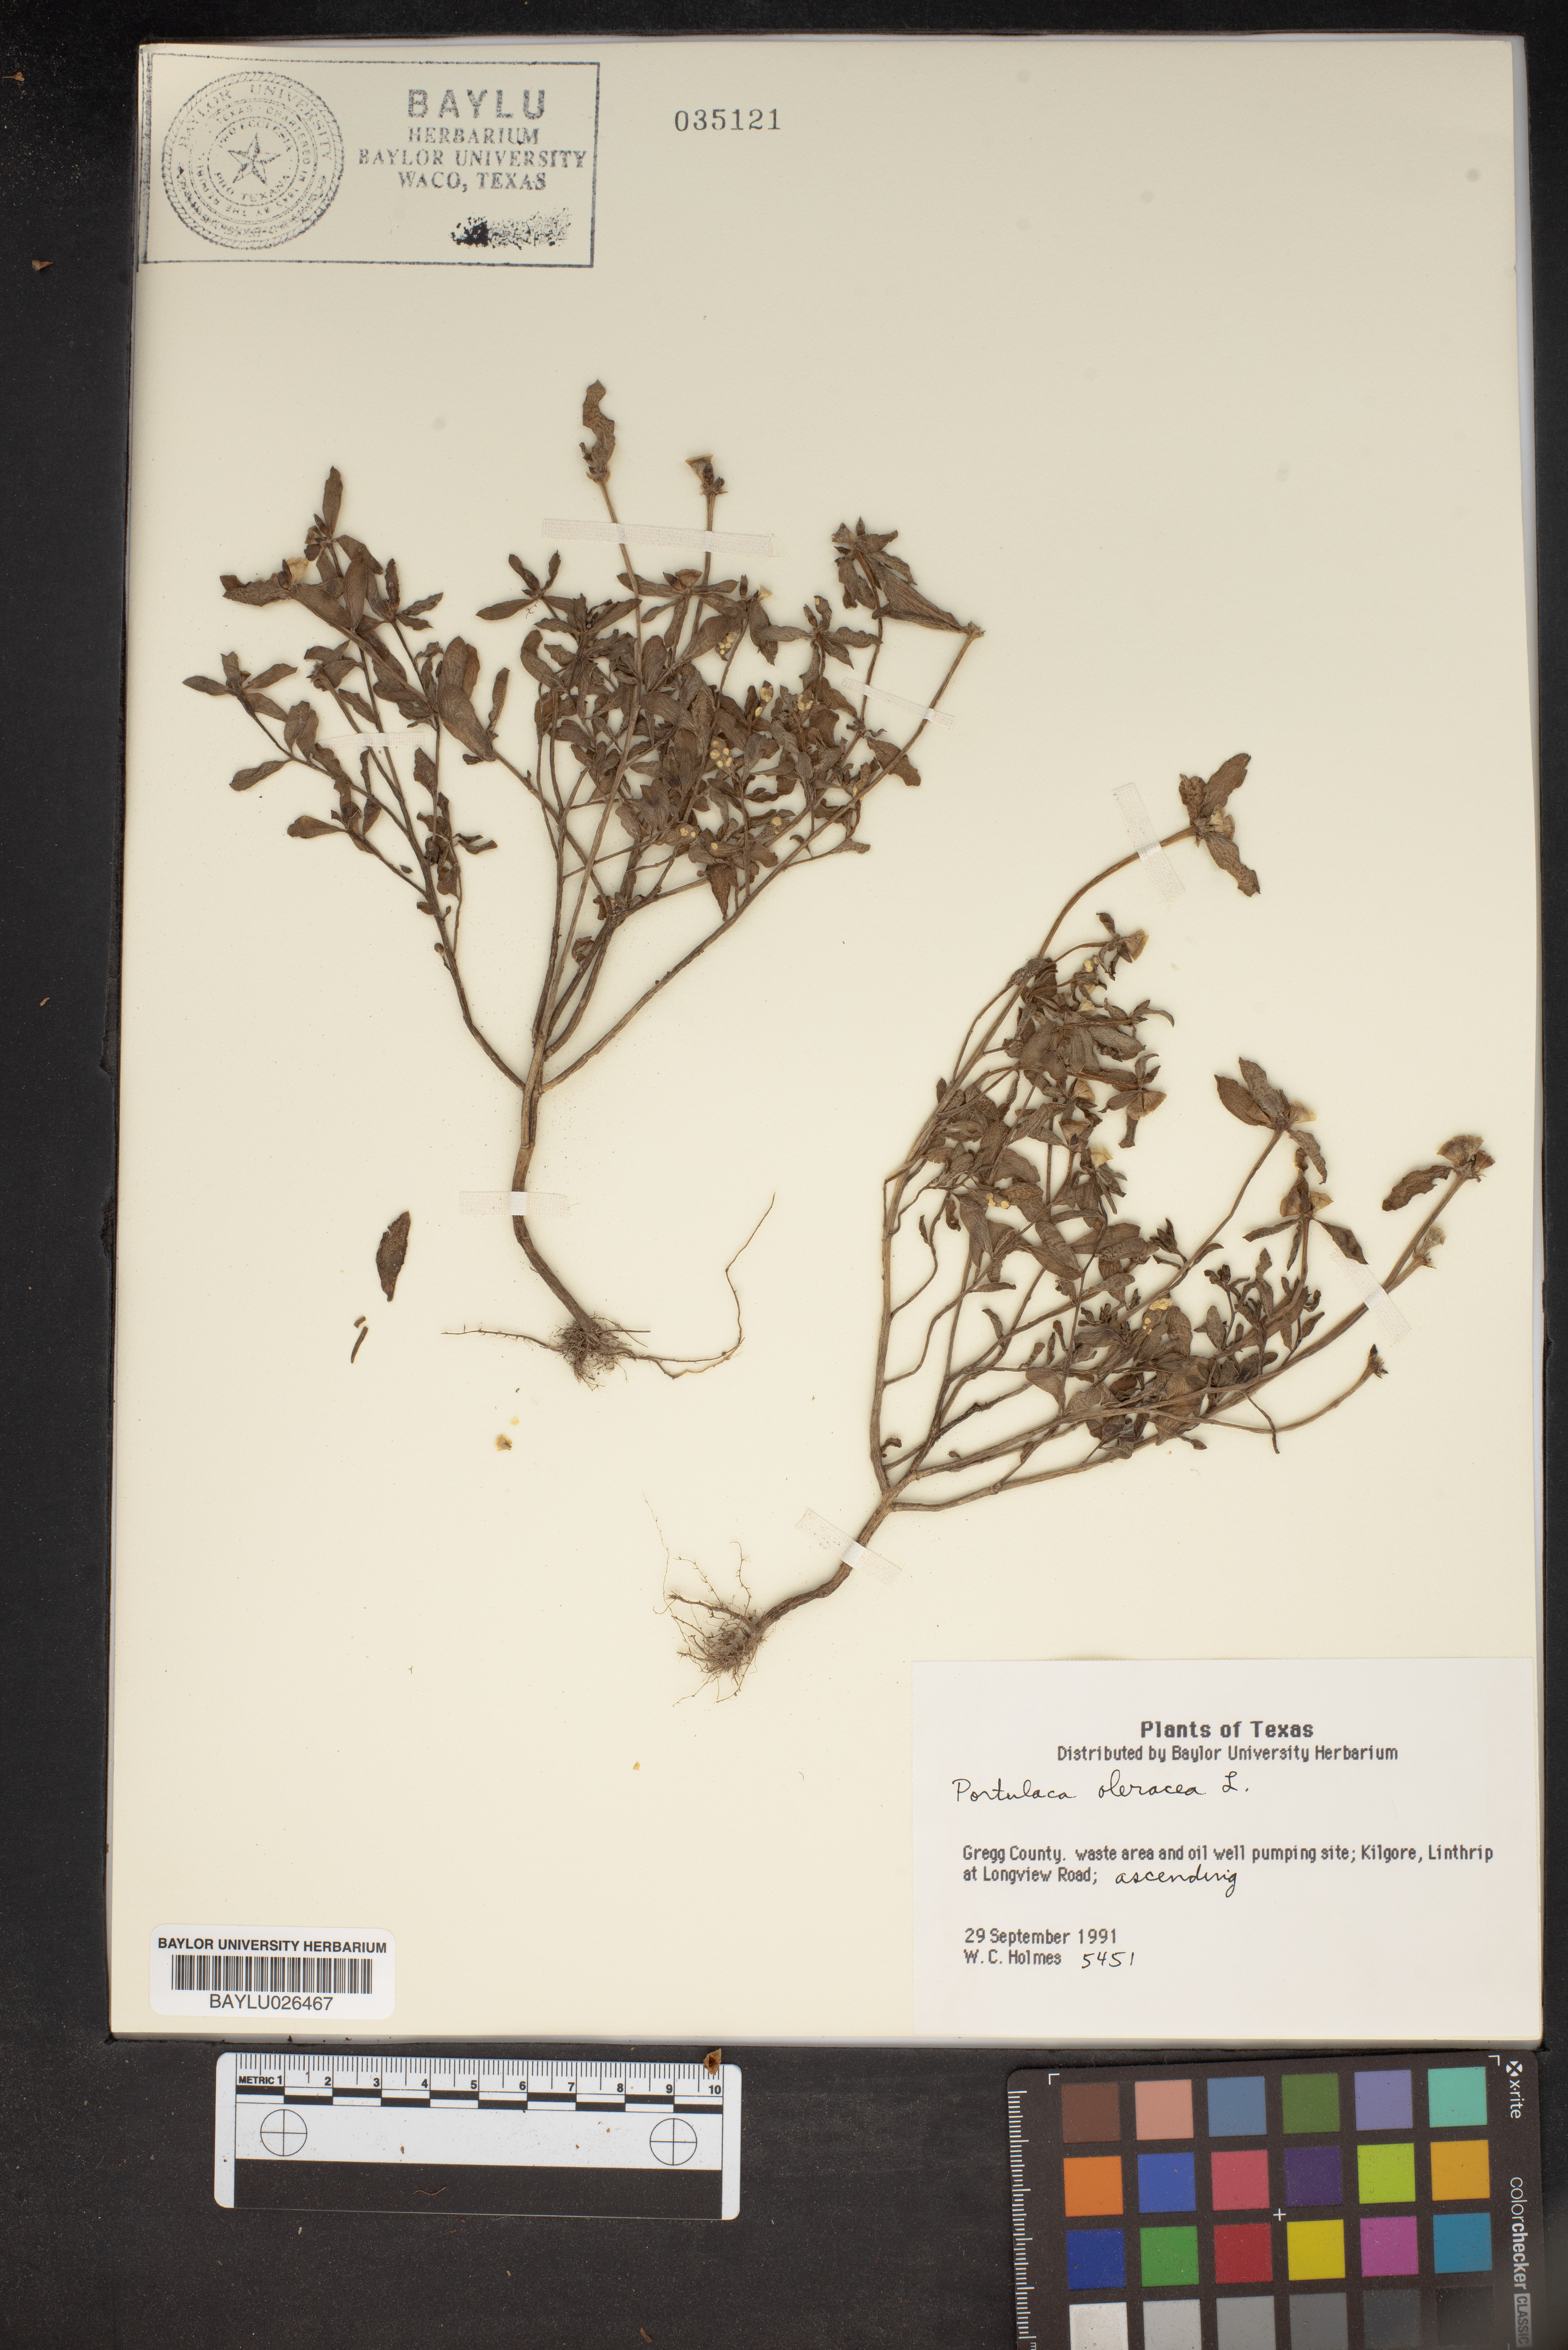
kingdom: Plantae
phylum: Tracheophyta
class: Magnoliopsida
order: Caryophyllales
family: Portulacaceae
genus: Portulaca
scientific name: Portulaca oleracea
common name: Common purslane
